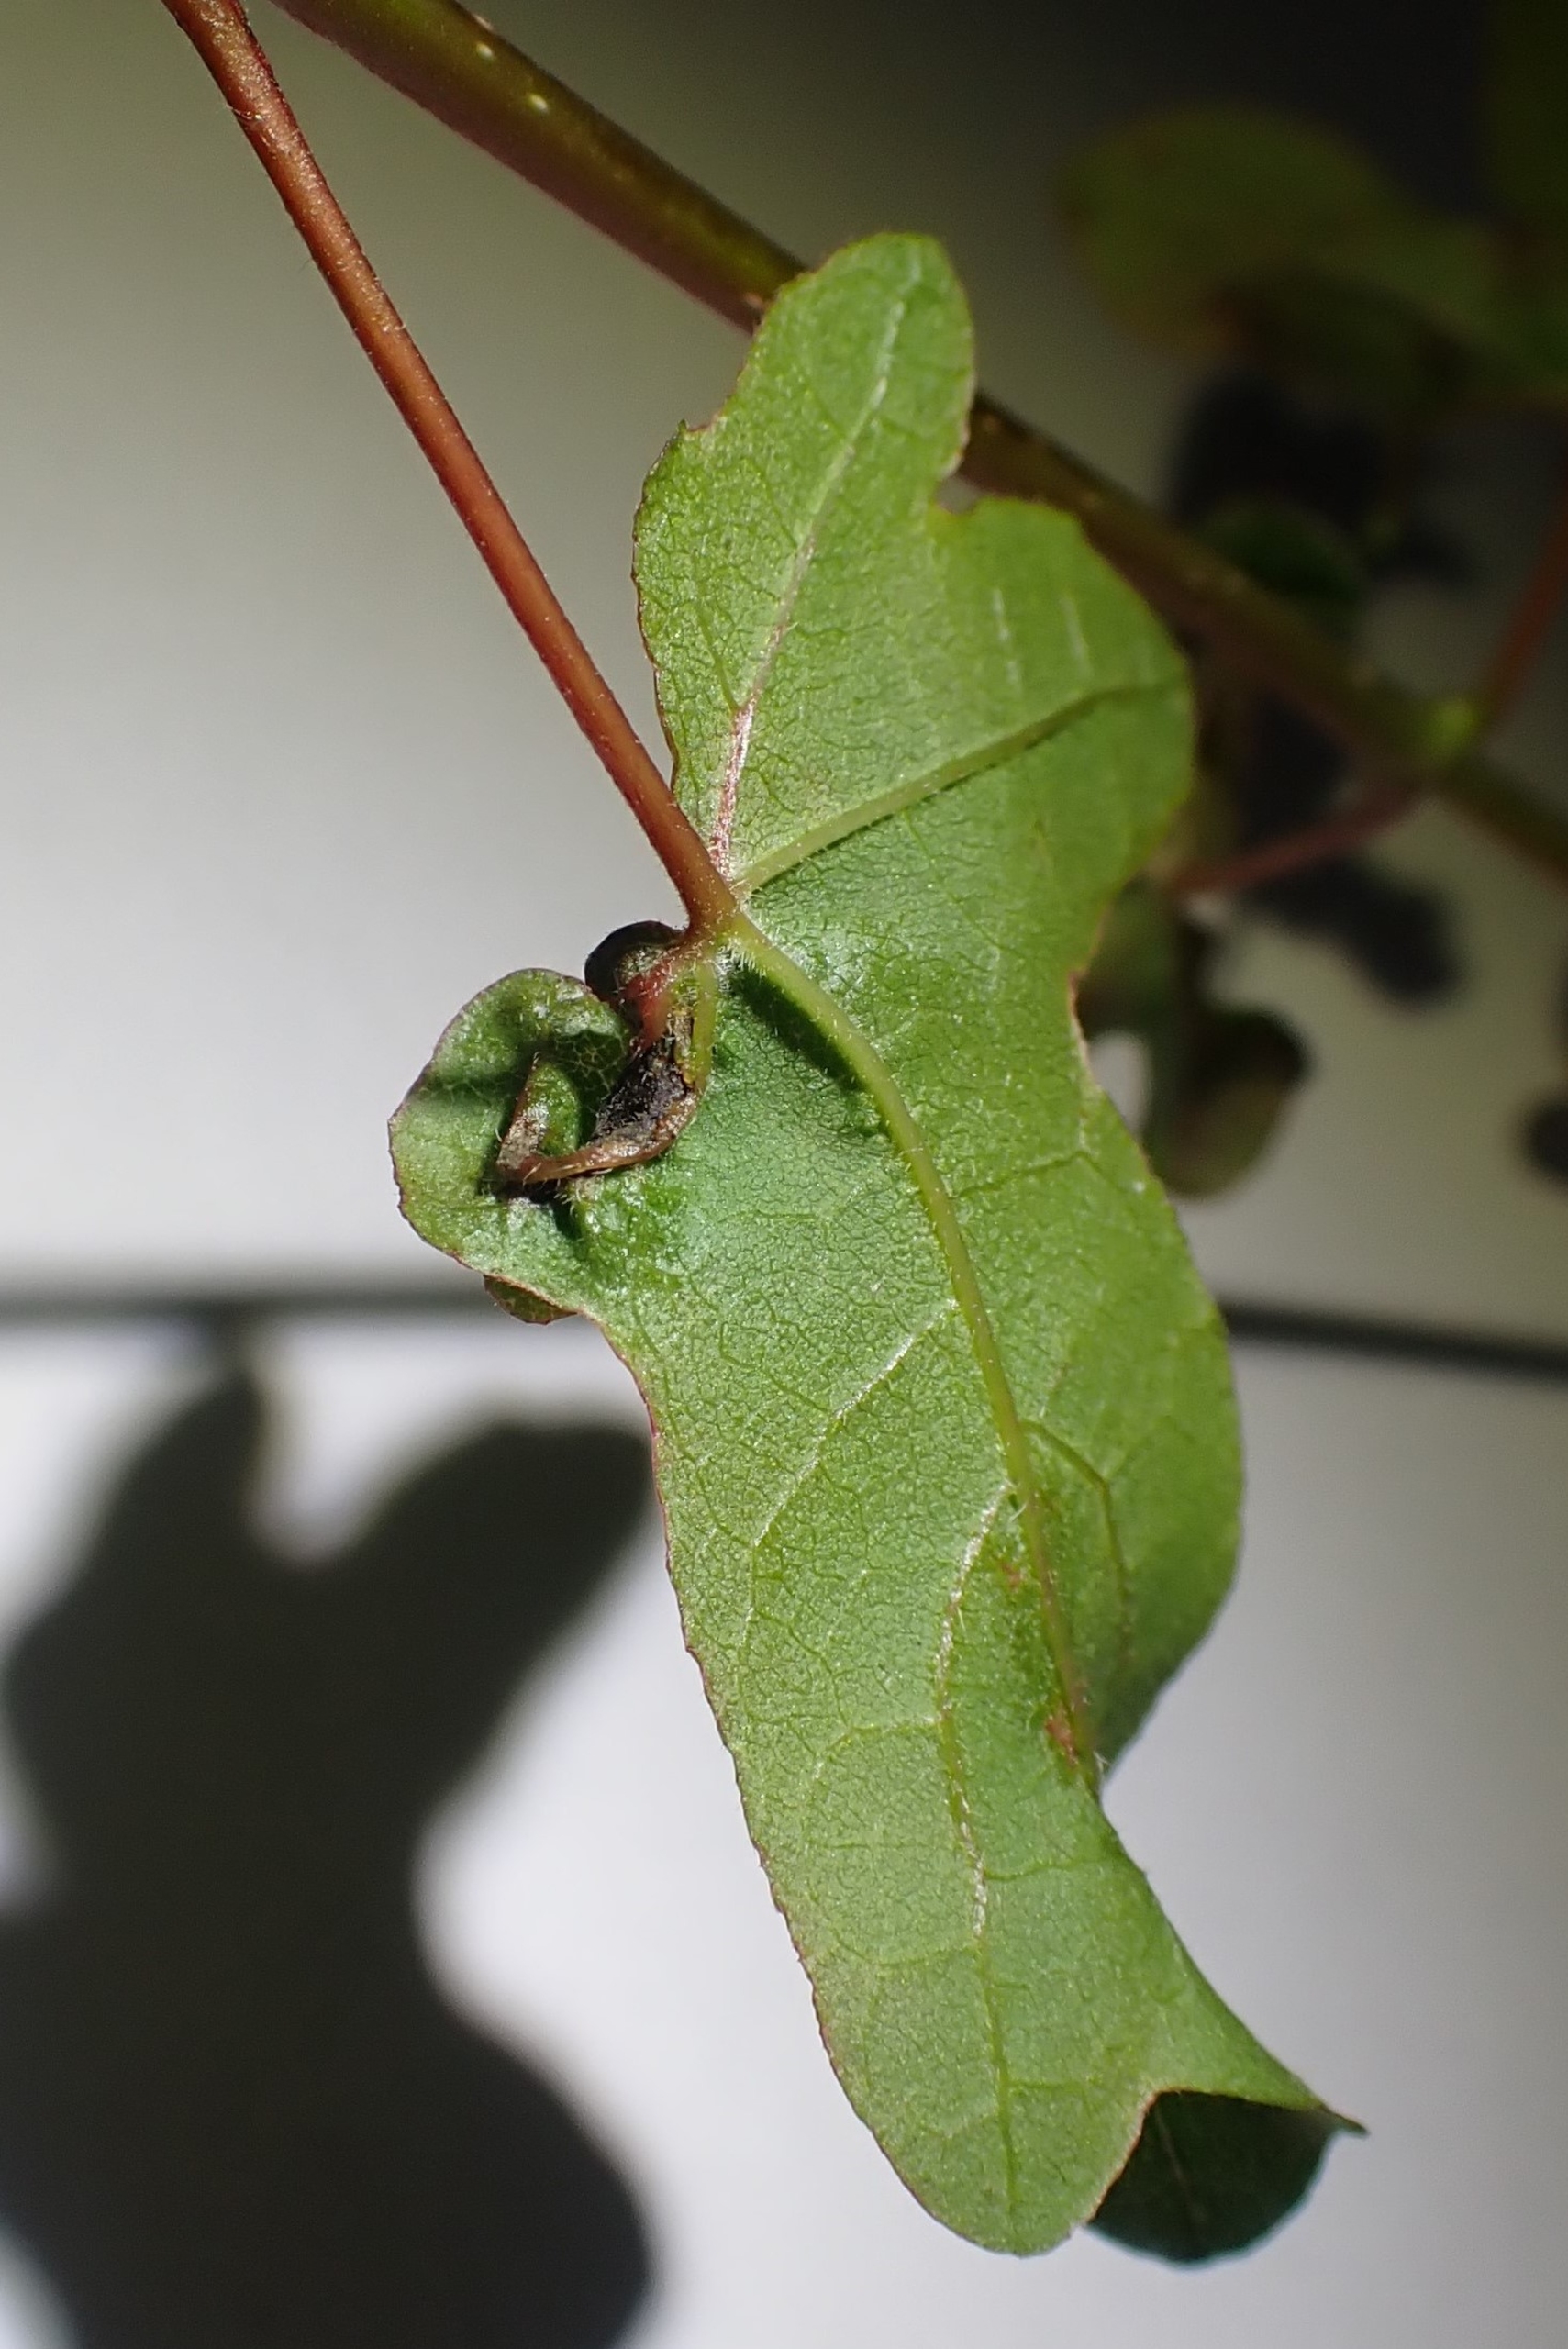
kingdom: Animalia
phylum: Arthropoda
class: Insecta
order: Diptera
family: Cecidomyiidae
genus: Dasineura
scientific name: Dasineura rubella
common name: Navrkrusegalmyg
